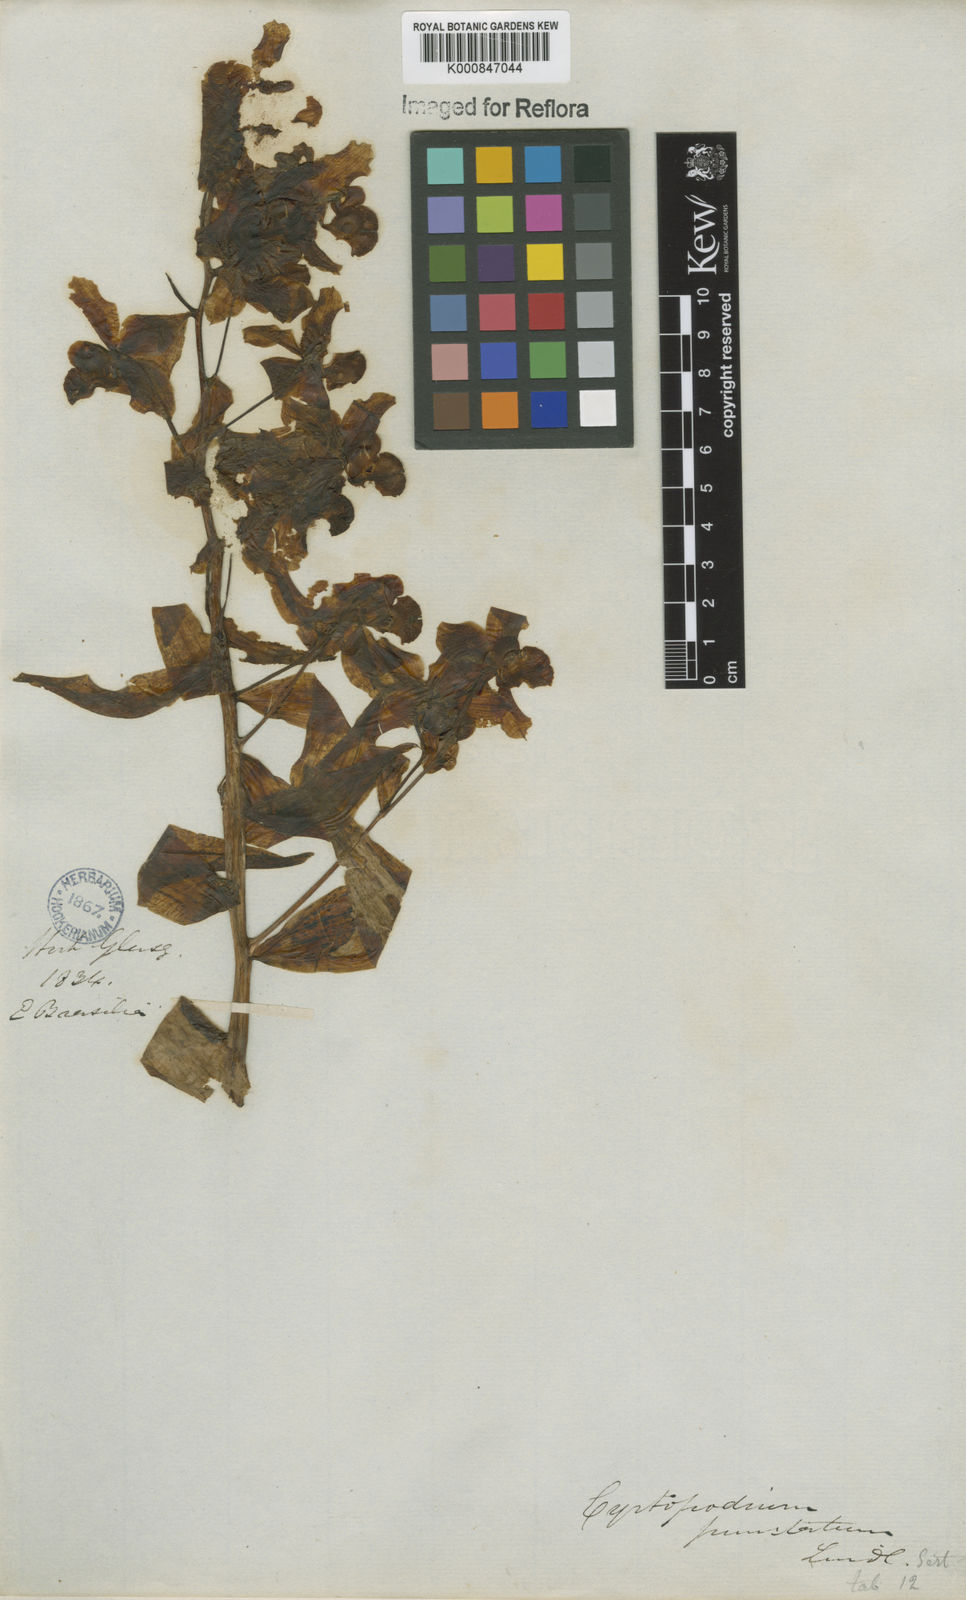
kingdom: Plantae
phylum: Tracheophyta
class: Liliopsida
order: Asparagales
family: Orchidaceae
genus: Cyrtopodium
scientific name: Cyrtopodium punctatum
